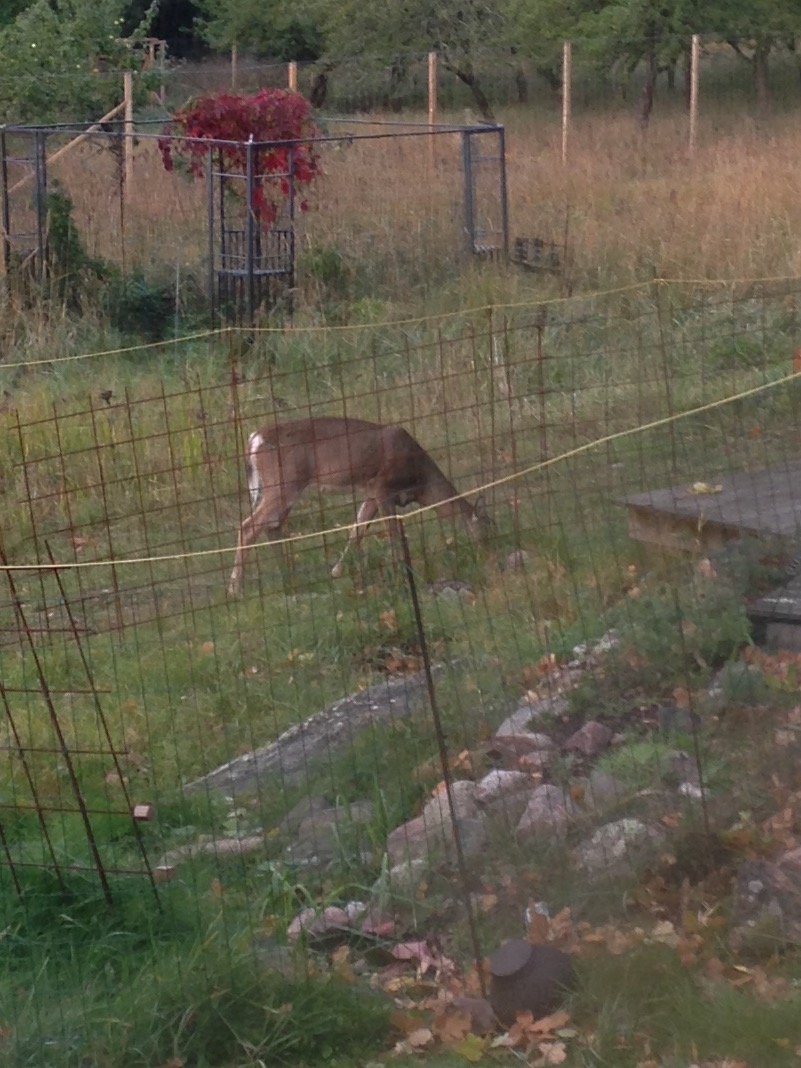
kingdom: Animalia
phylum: Chordata
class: Mammalia
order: Artiodactyla
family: Cervidae
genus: Odocoileus
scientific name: Odocoileus virginianus
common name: White-tailed deer
